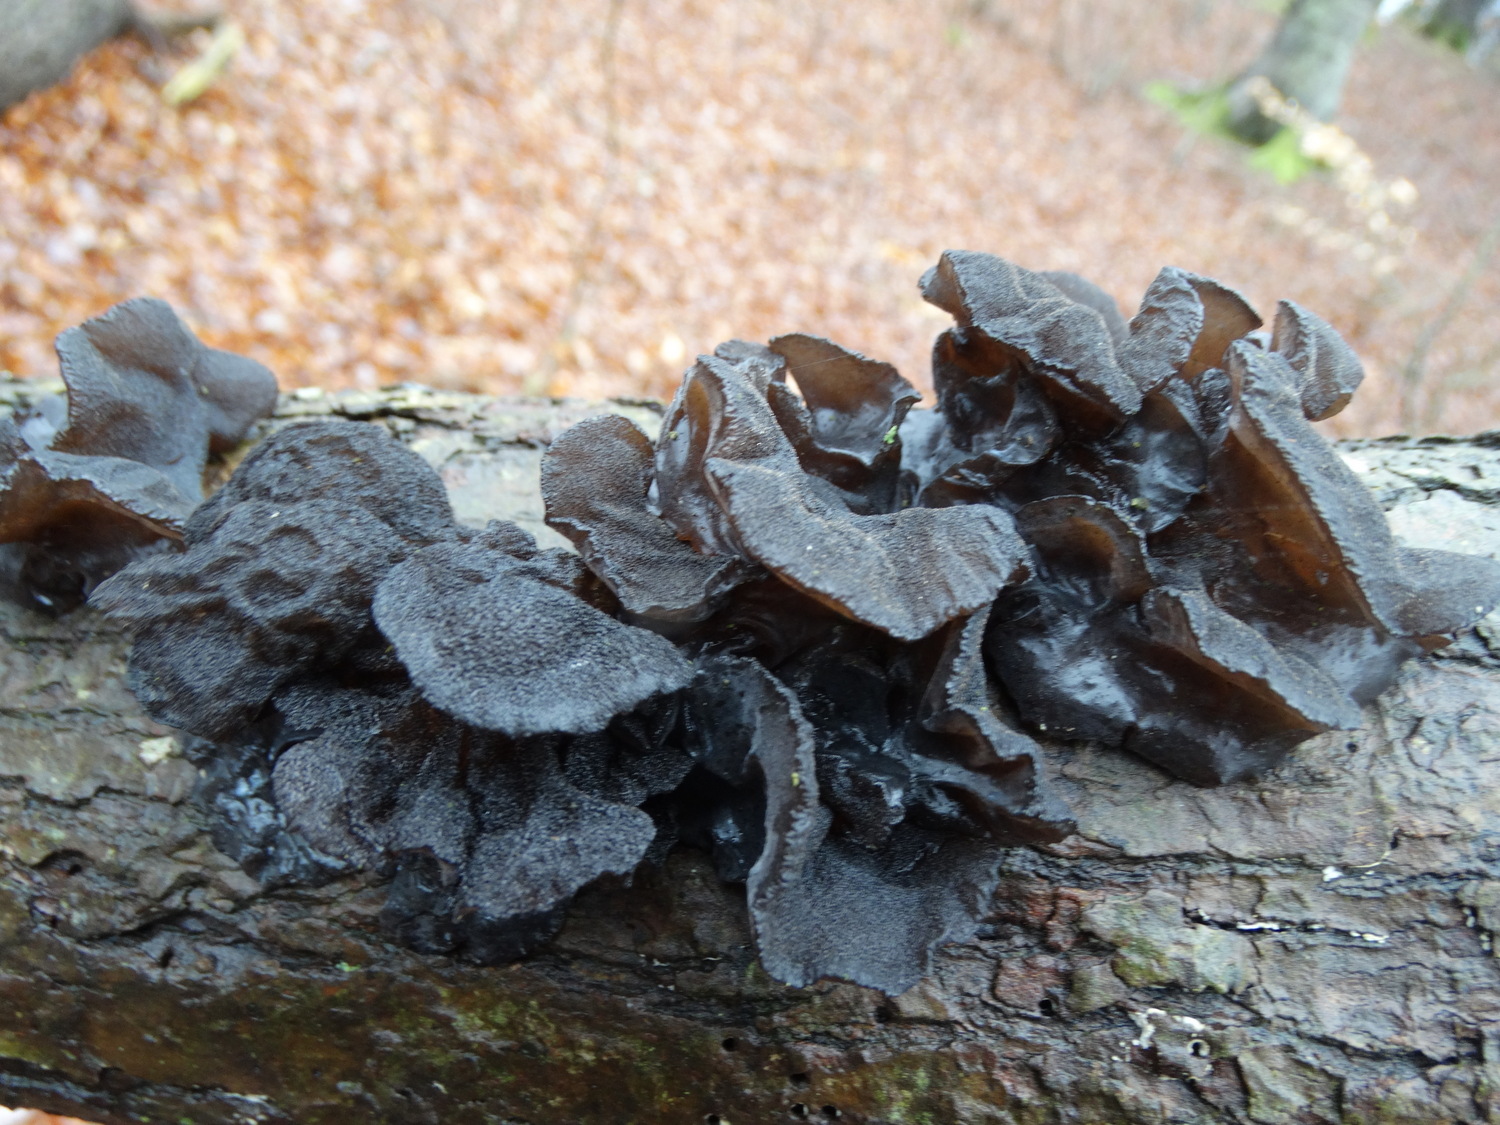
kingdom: Fungi
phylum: Basidiomycota
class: Agaricomycetes
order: Auriculariales
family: Auriculariaceae
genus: Exidia
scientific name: Exidia glandulosa
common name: ege-bævretop
